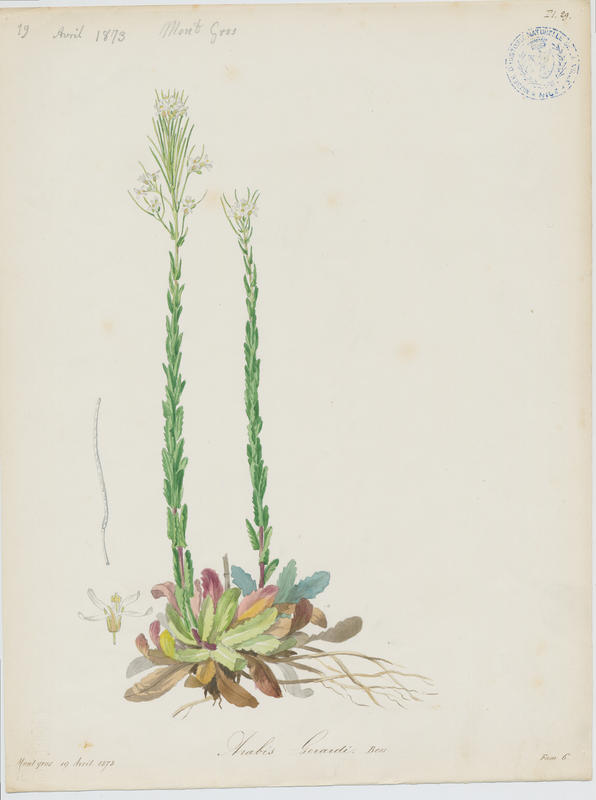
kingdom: Plantae
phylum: Tracheophyta
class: Magnoliopsida
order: Brassicales
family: Brassicaceae
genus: Arabis
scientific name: Arabis planisiliqua
